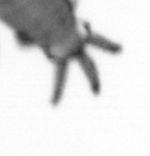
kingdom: Animalia
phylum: Annelida
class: Polychaeta
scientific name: Polychaeta
